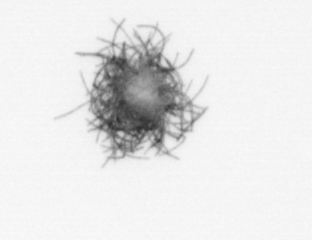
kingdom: Bacteria
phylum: Cyanobacteria
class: Cyanobacteriia
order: Cyanobacteriales
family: Microcoleaceae
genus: Trichodesmium
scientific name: Trichodesmium
